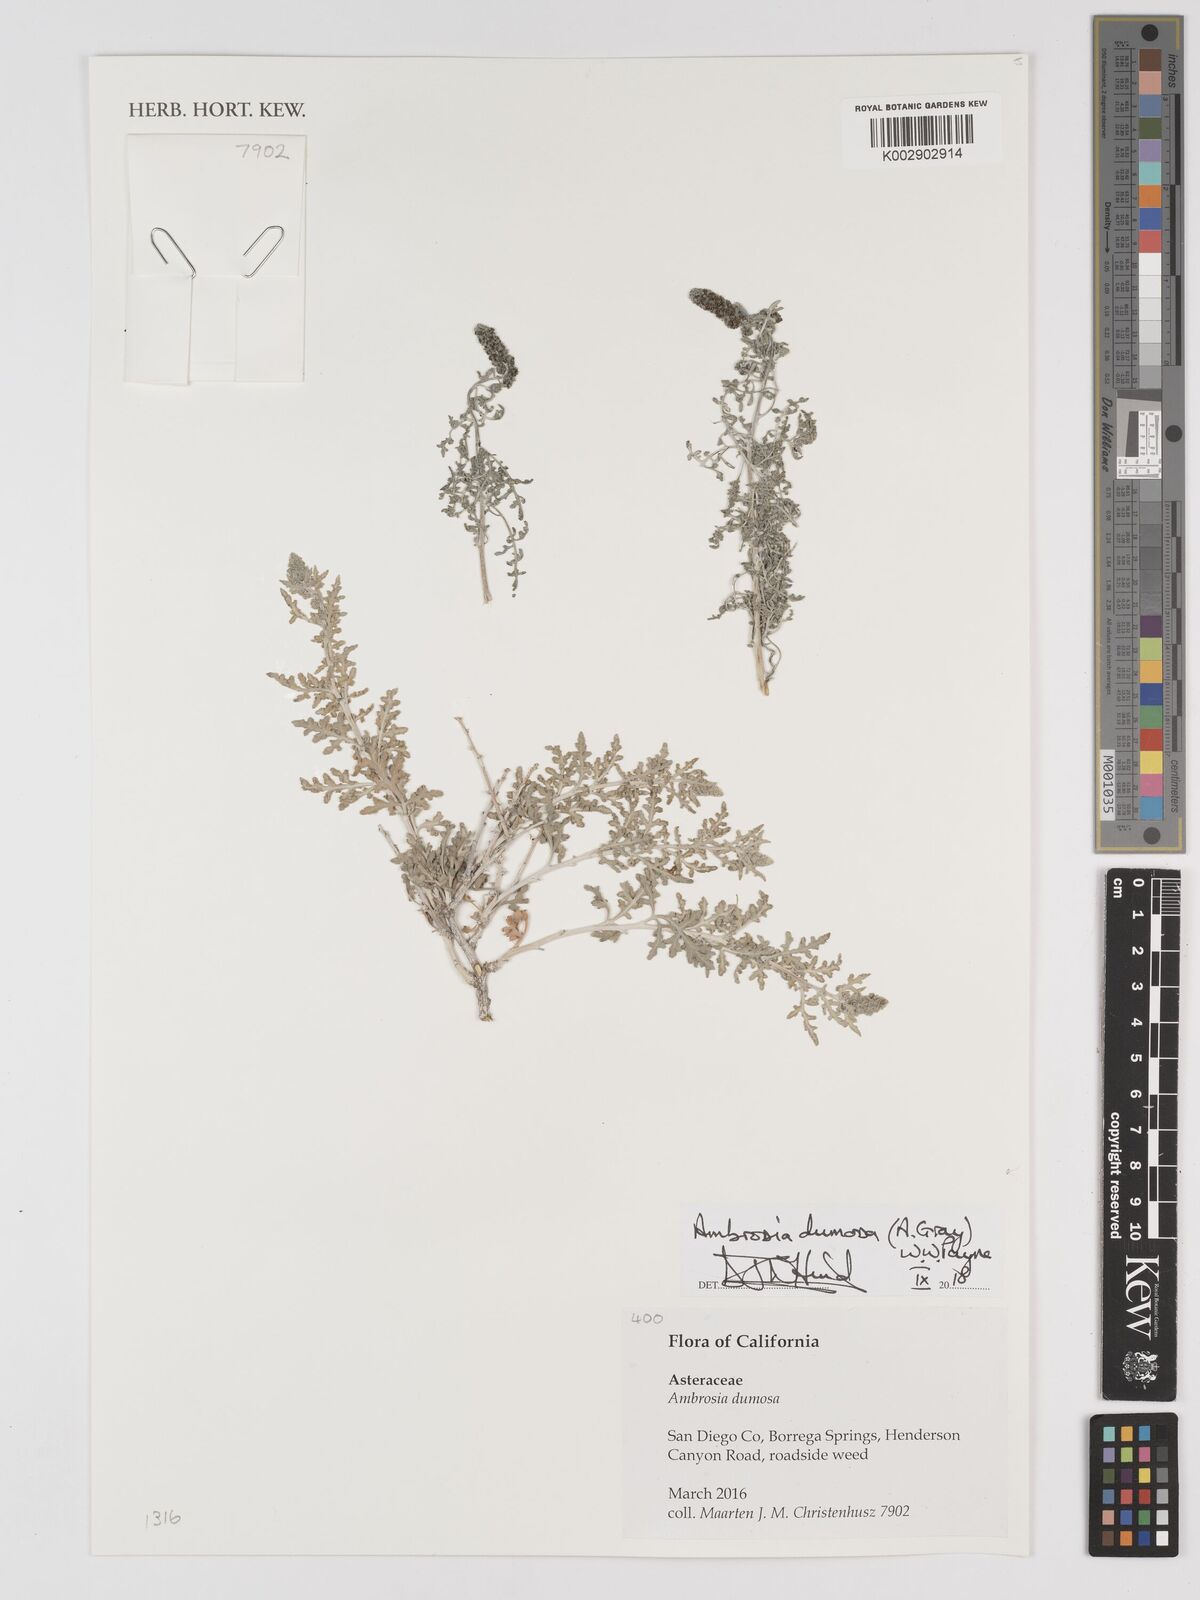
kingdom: Plantae
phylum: Tracheophyta
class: Magnoliopsida
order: Asterales
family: Asteraceae
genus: Ambrosia
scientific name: Ambrosia dumosa
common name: Bur-sage
